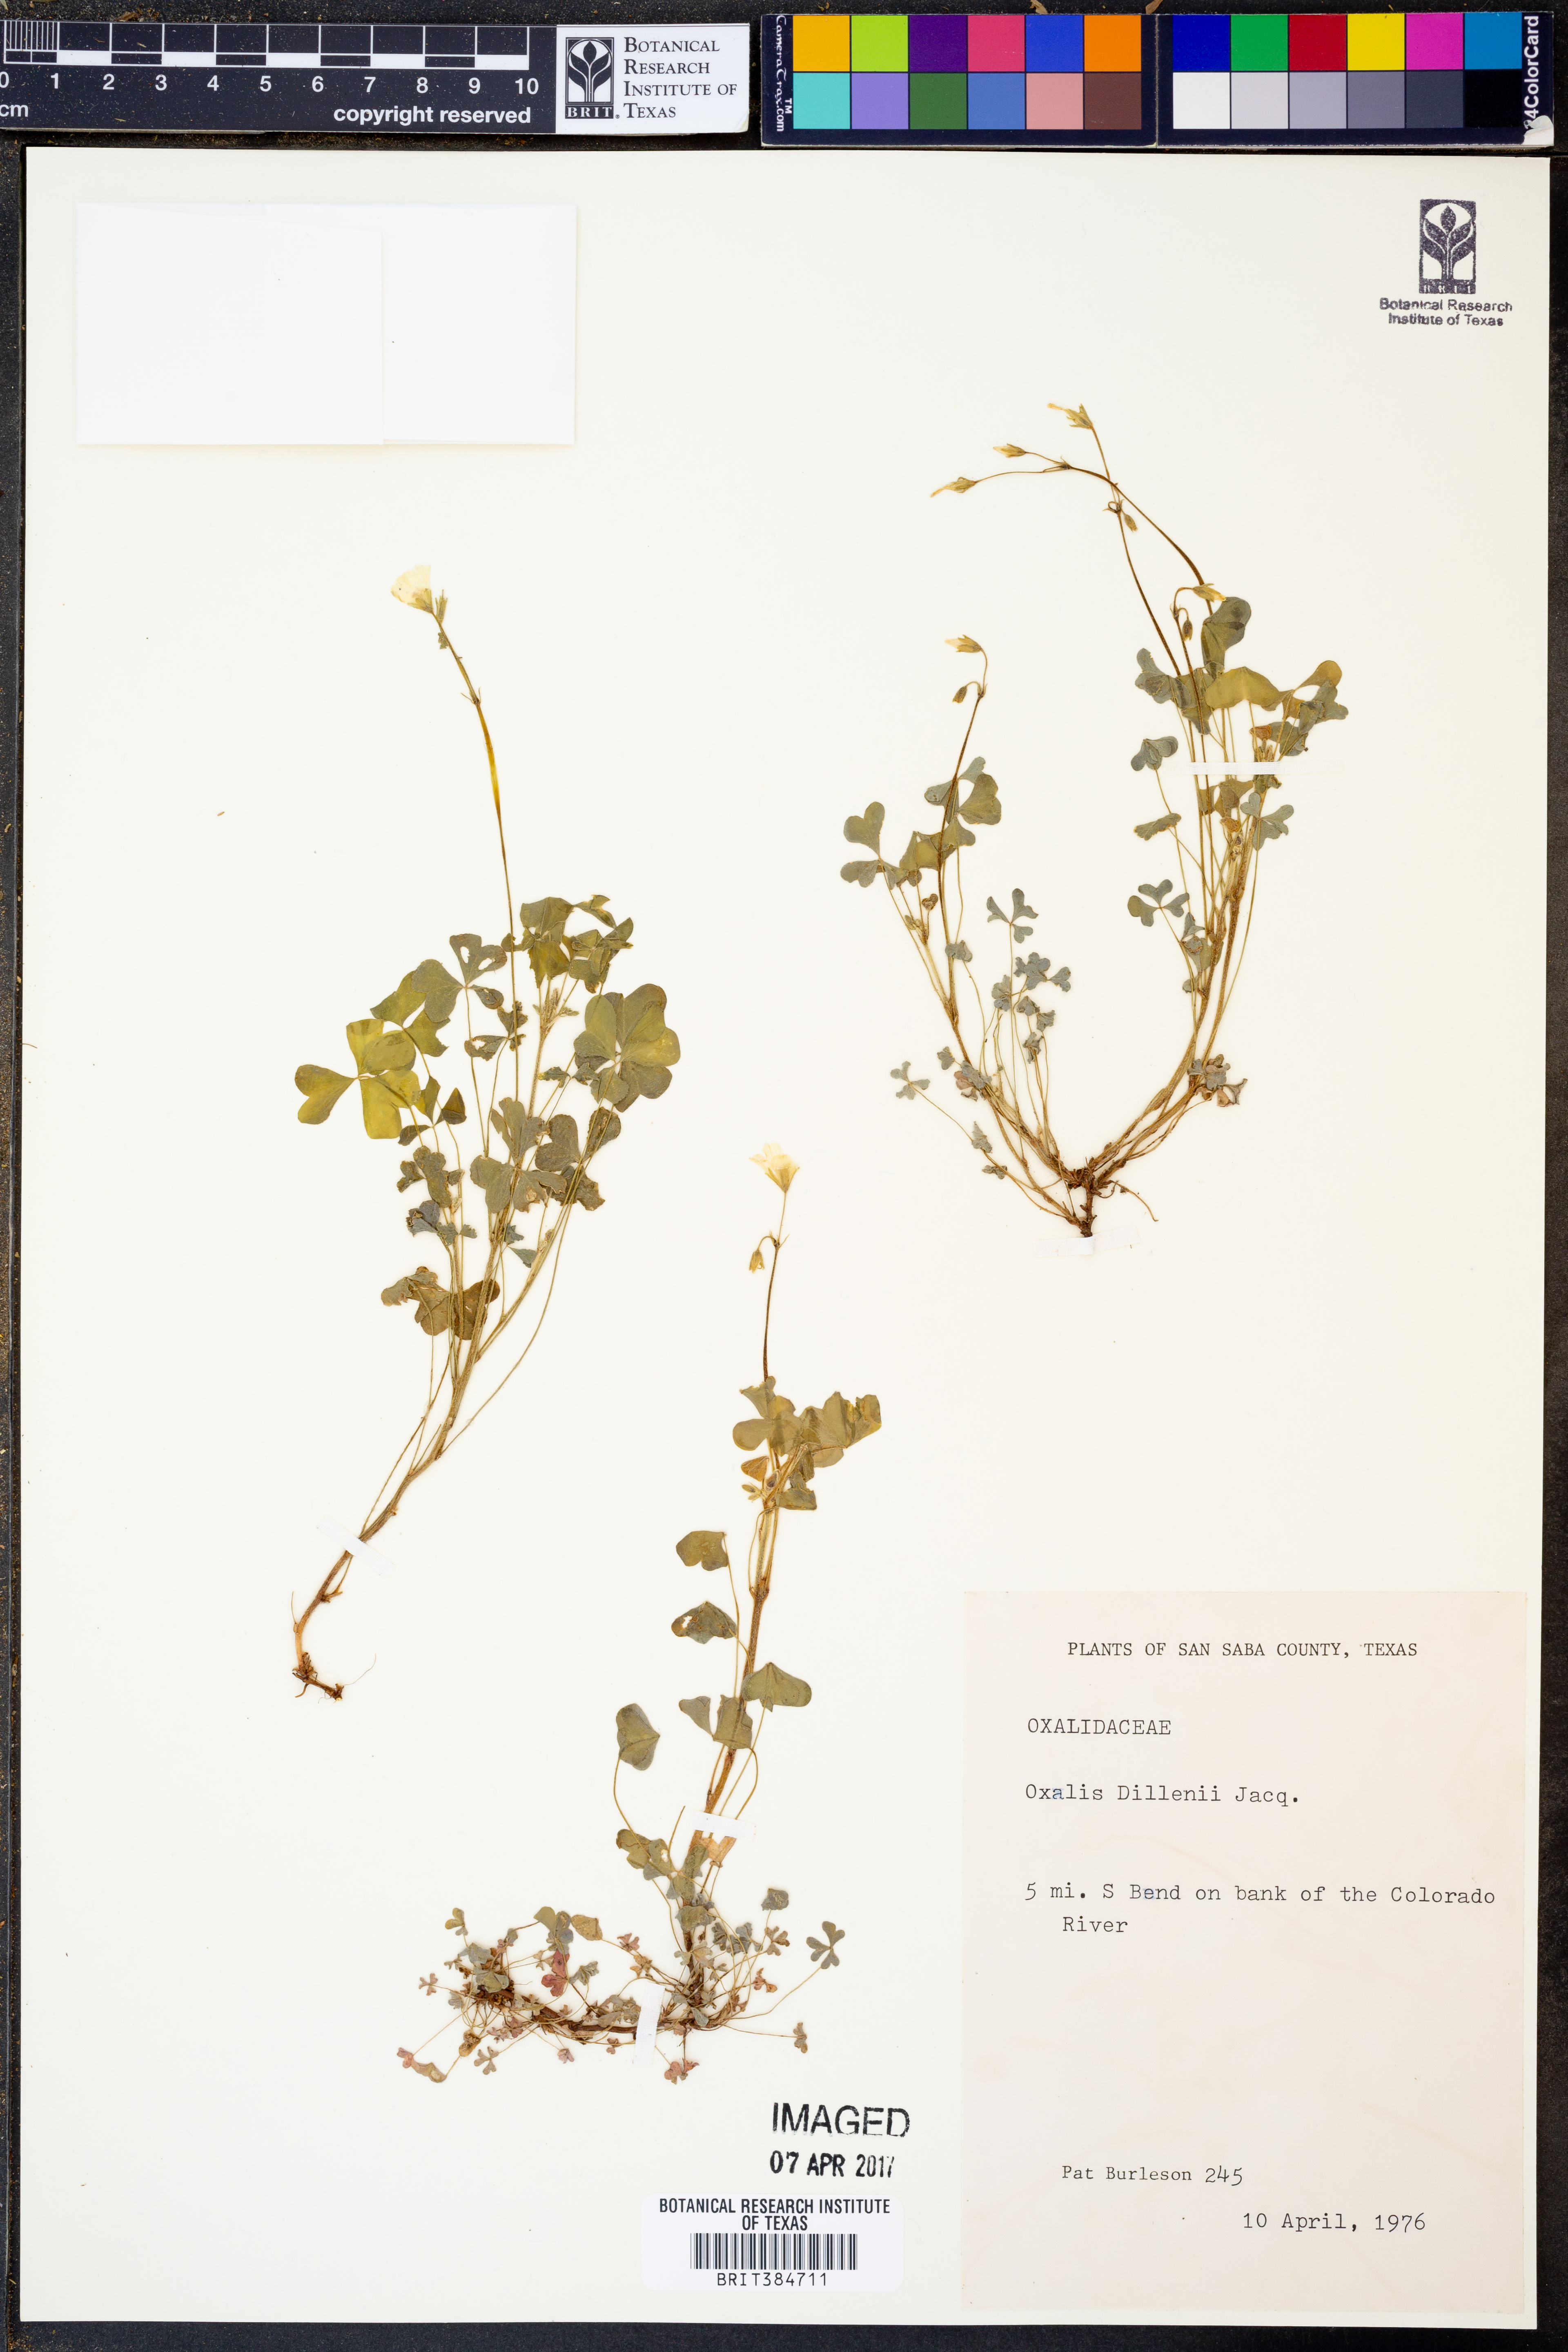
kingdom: Plantae
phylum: Tracheophyta
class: Magnoliopsida
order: Oxalidales
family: Oxalidaceae
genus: Oxalis
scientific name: Oxalis dillenii
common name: Sussex yellow-sorrel
